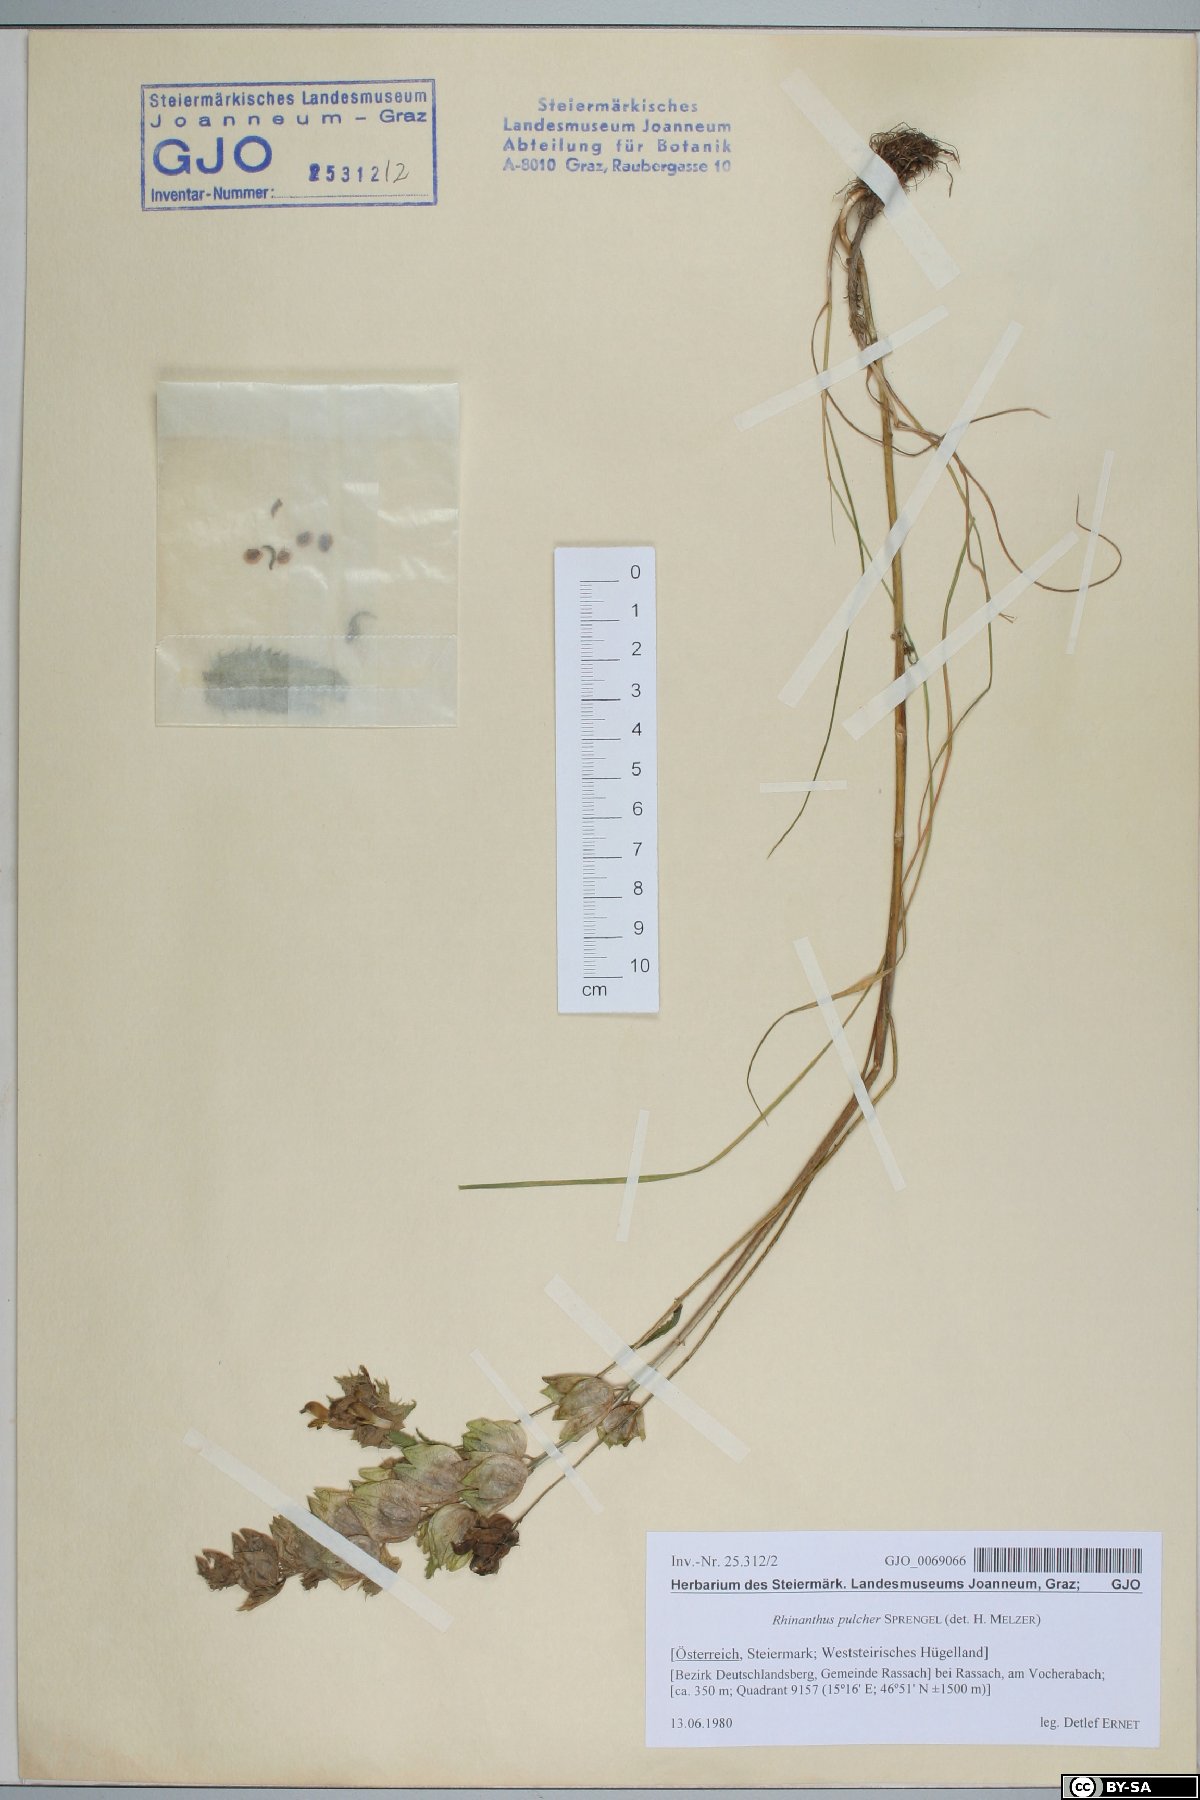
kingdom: Plantae
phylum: Tracheophyta
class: Magnoliopsida
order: Lamiales
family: Orobanchaceae
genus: Rhinanthus
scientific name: Rhinanthus riphaeus
